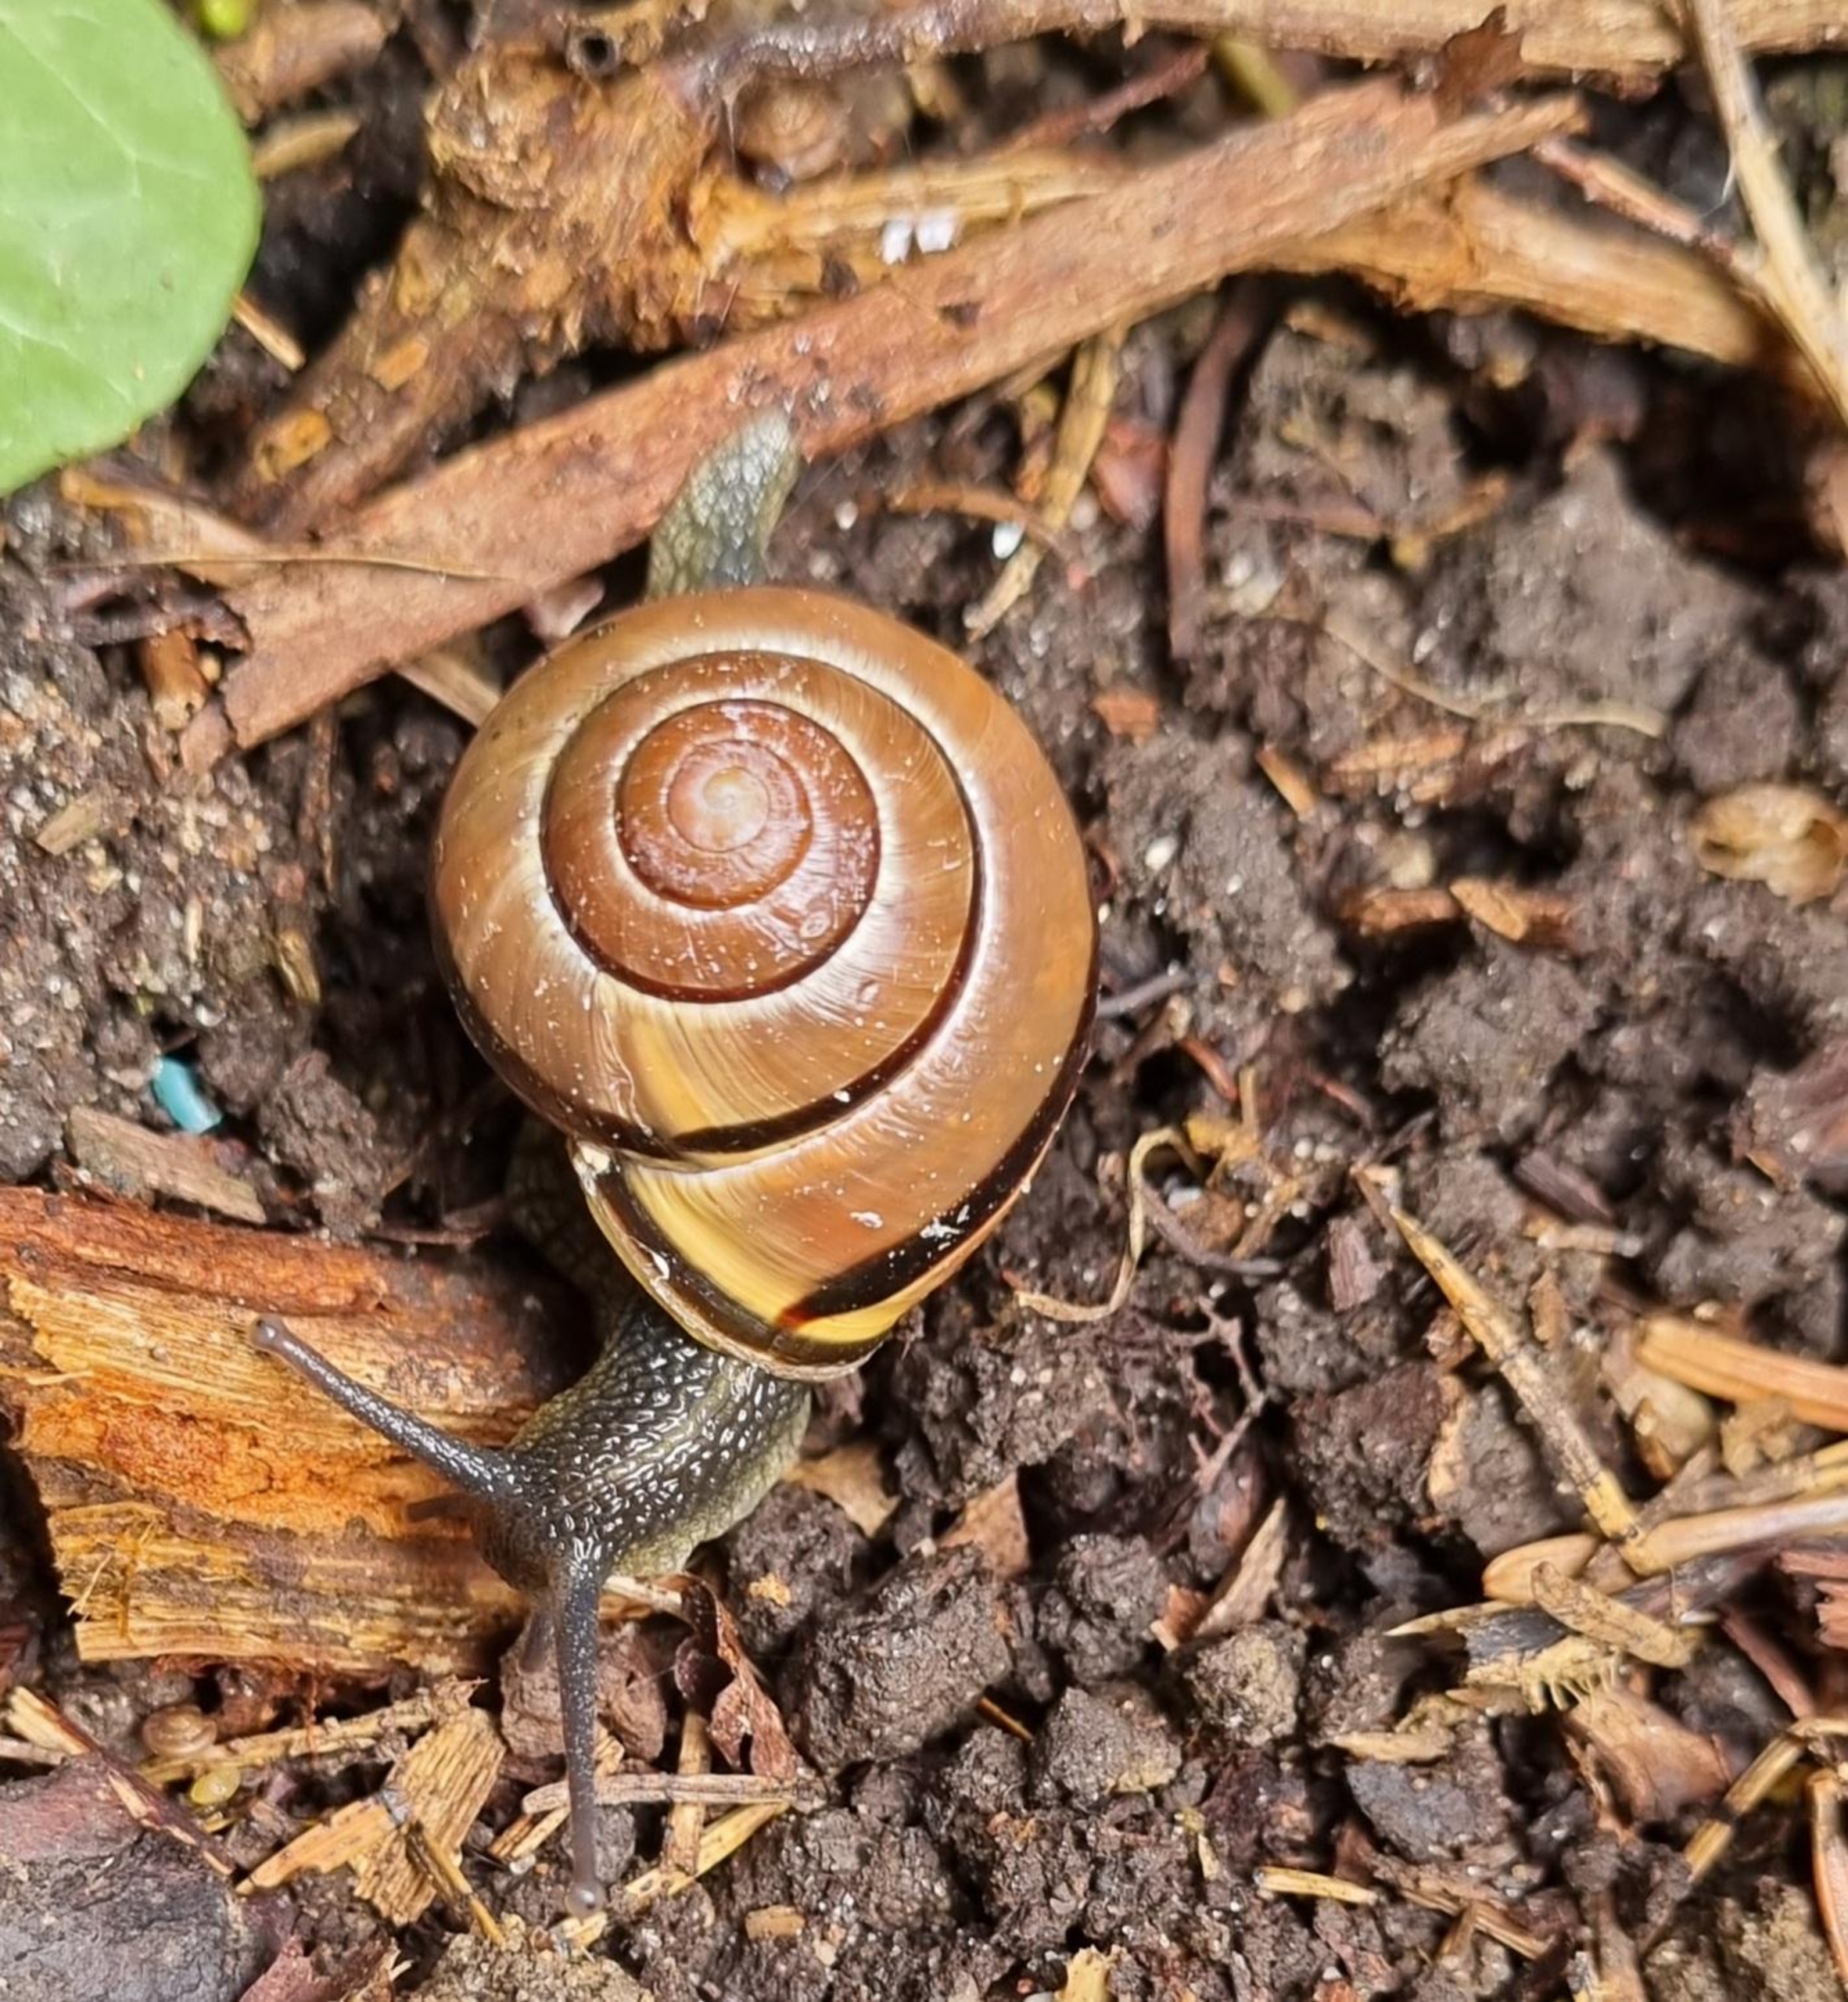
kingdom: Animalia
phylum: Mollusca
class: Gastropoda
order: Stylommatophora
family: Helicidae
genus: Cepaea
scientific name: Cepaea nemoralis
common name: Lundsnegl
